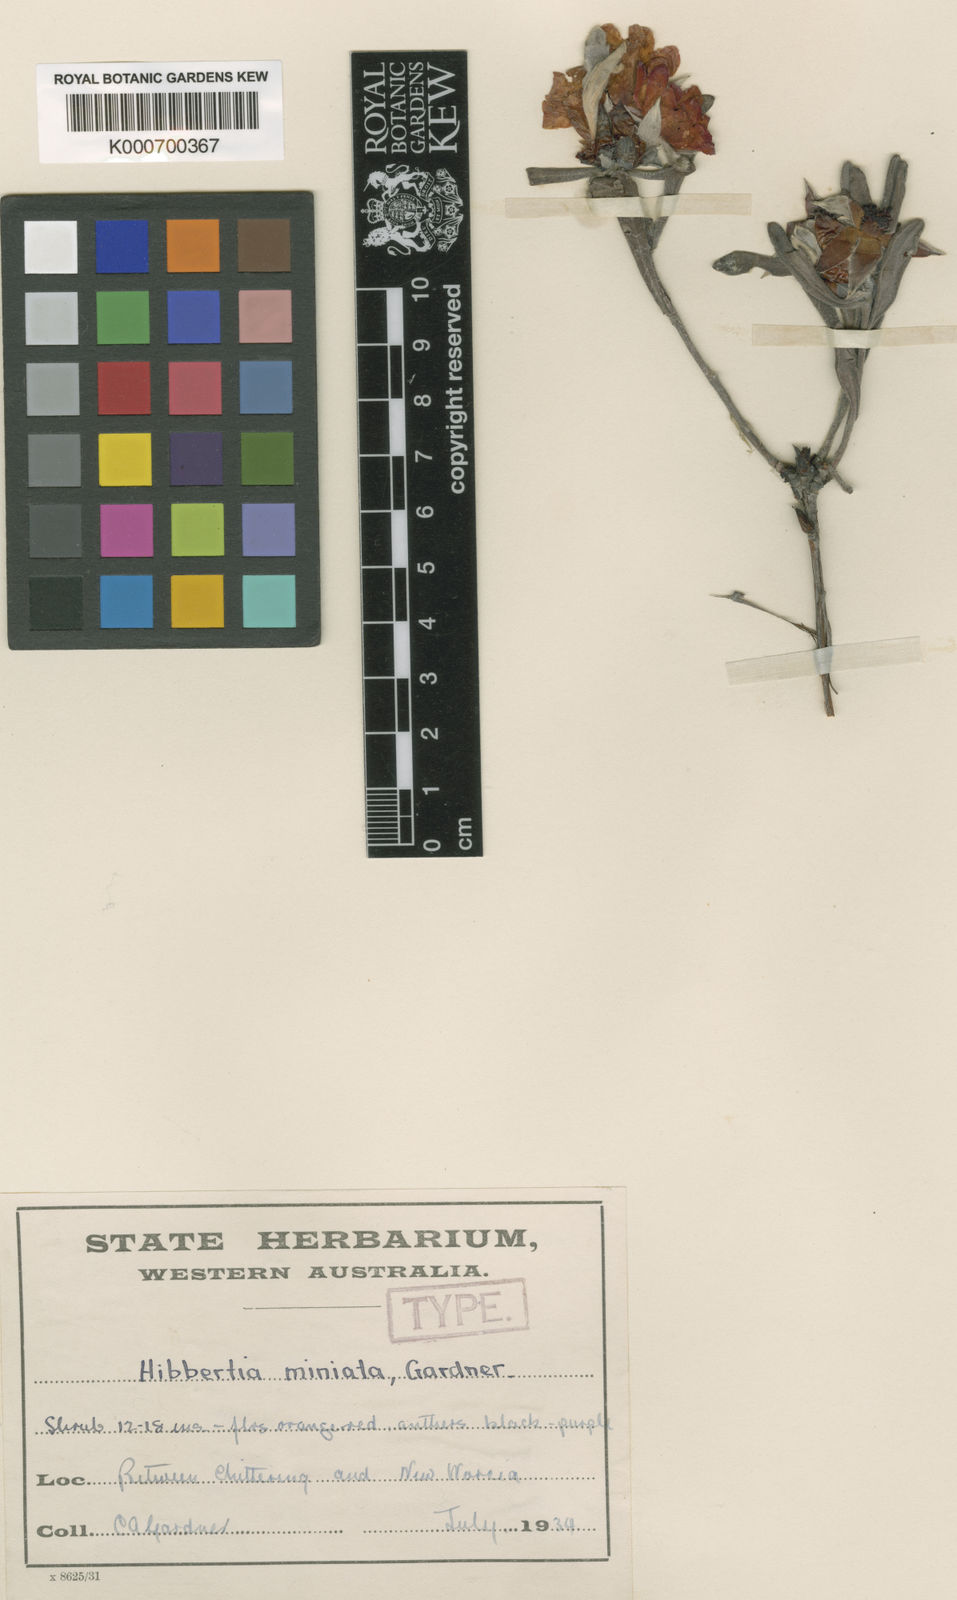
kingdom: Plantae
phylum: Tracheophyta
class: Magnoliopsida
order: Dilleniales
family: Dilleniaceae
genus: Hibbertia
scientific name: Hibbertia miniata
